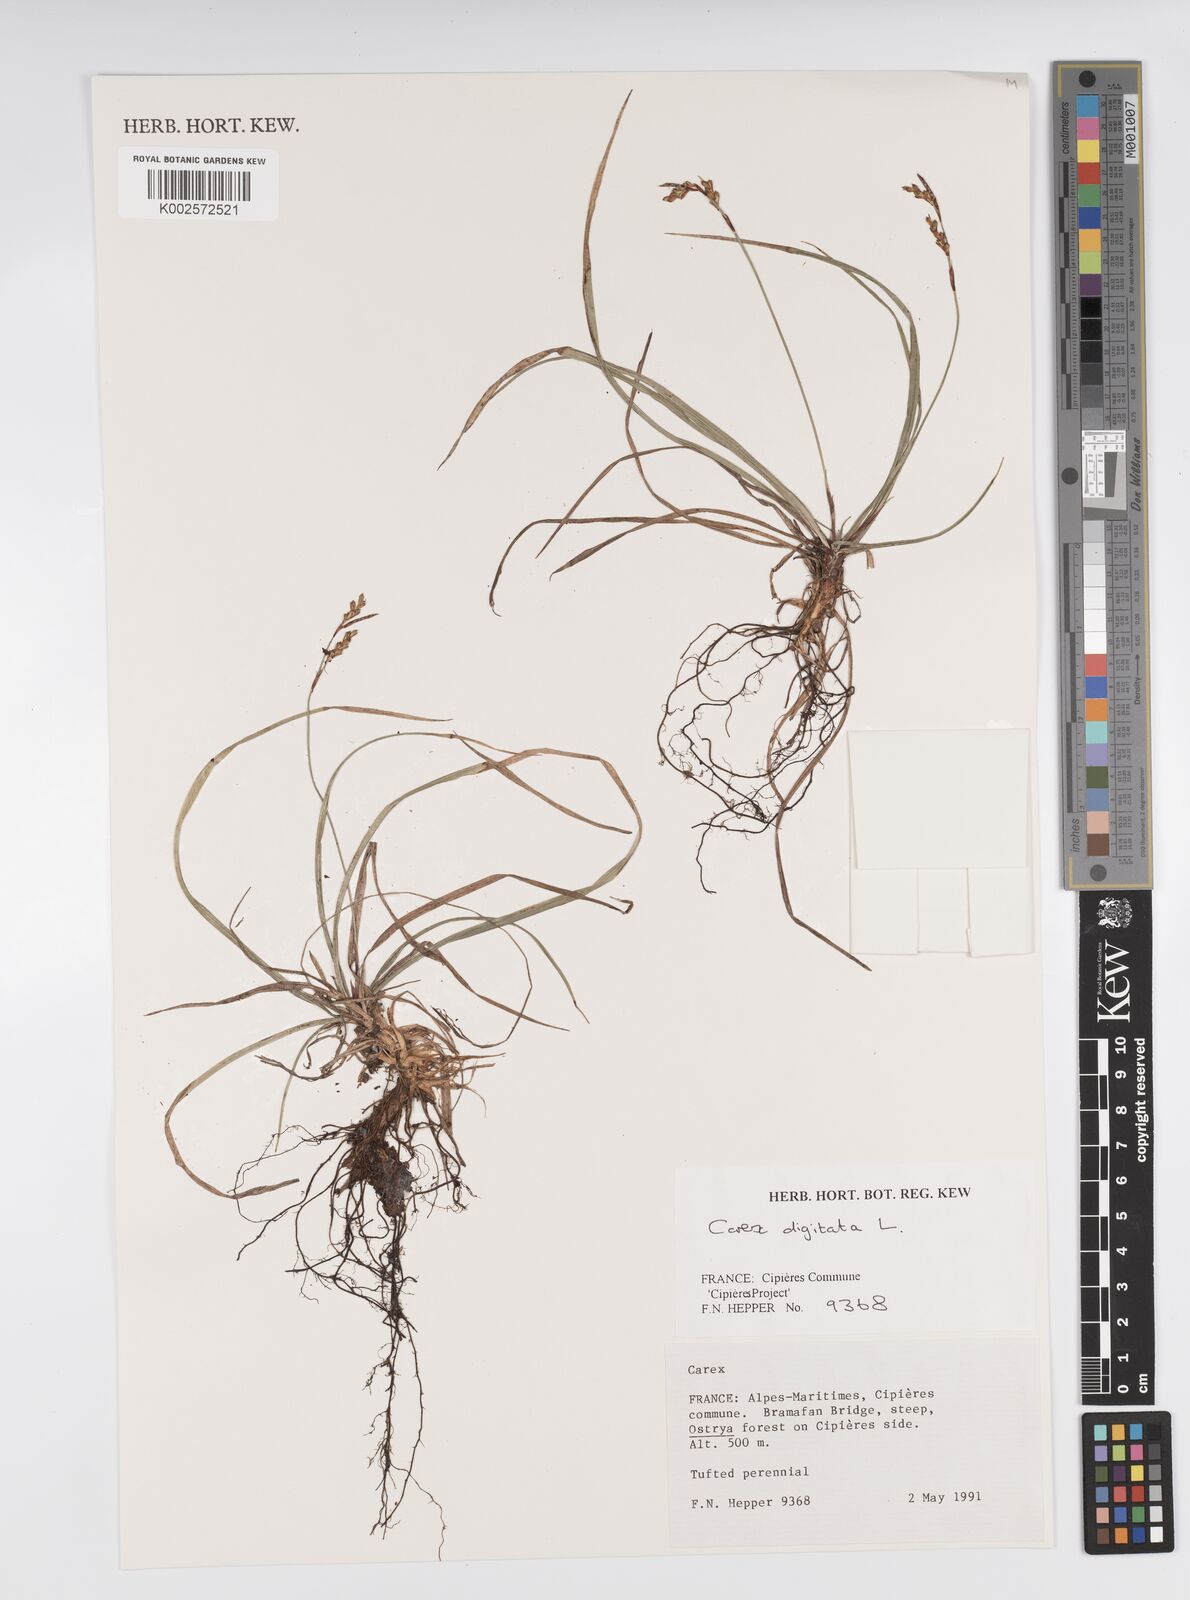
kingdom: Plantae
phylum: Tracheophyta
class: Liliopsida
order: Poales
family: Cyperaceae
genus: Carex
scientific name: Carex digitata
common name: Fingered sedge
